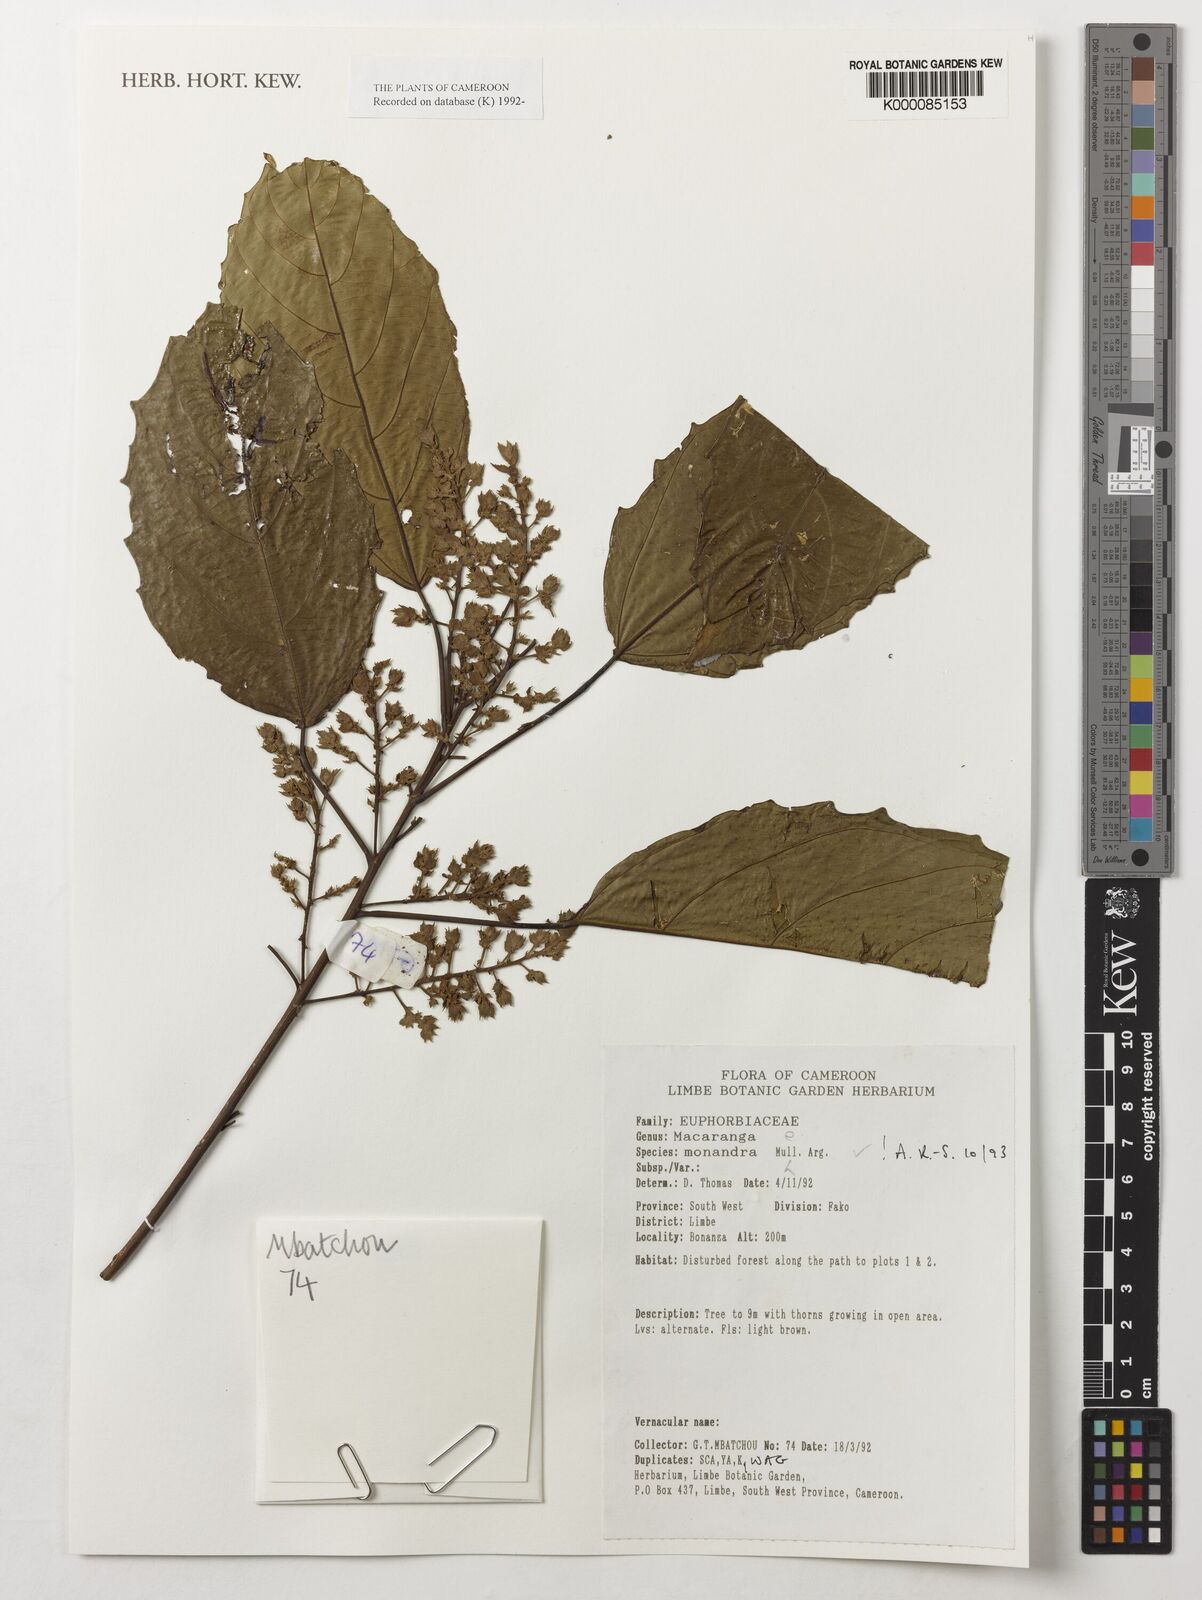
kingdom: Plantae
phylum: Tracheophyta
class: Magnoliopsida
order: Malpighiales
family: Euphorbiaceae
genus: Macaranga
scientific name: Macaranga
